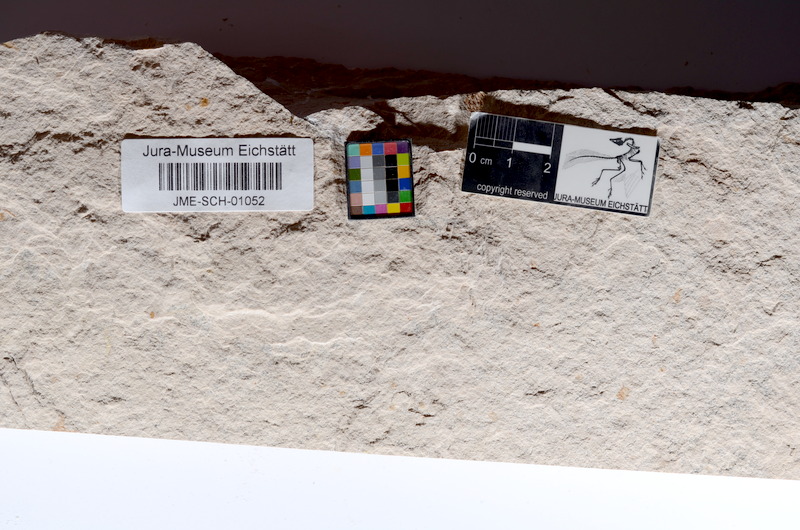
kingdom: Animalia
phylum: Chordata
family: Ascalaboidae
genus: Tharsis
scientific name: Tharsis dubius
